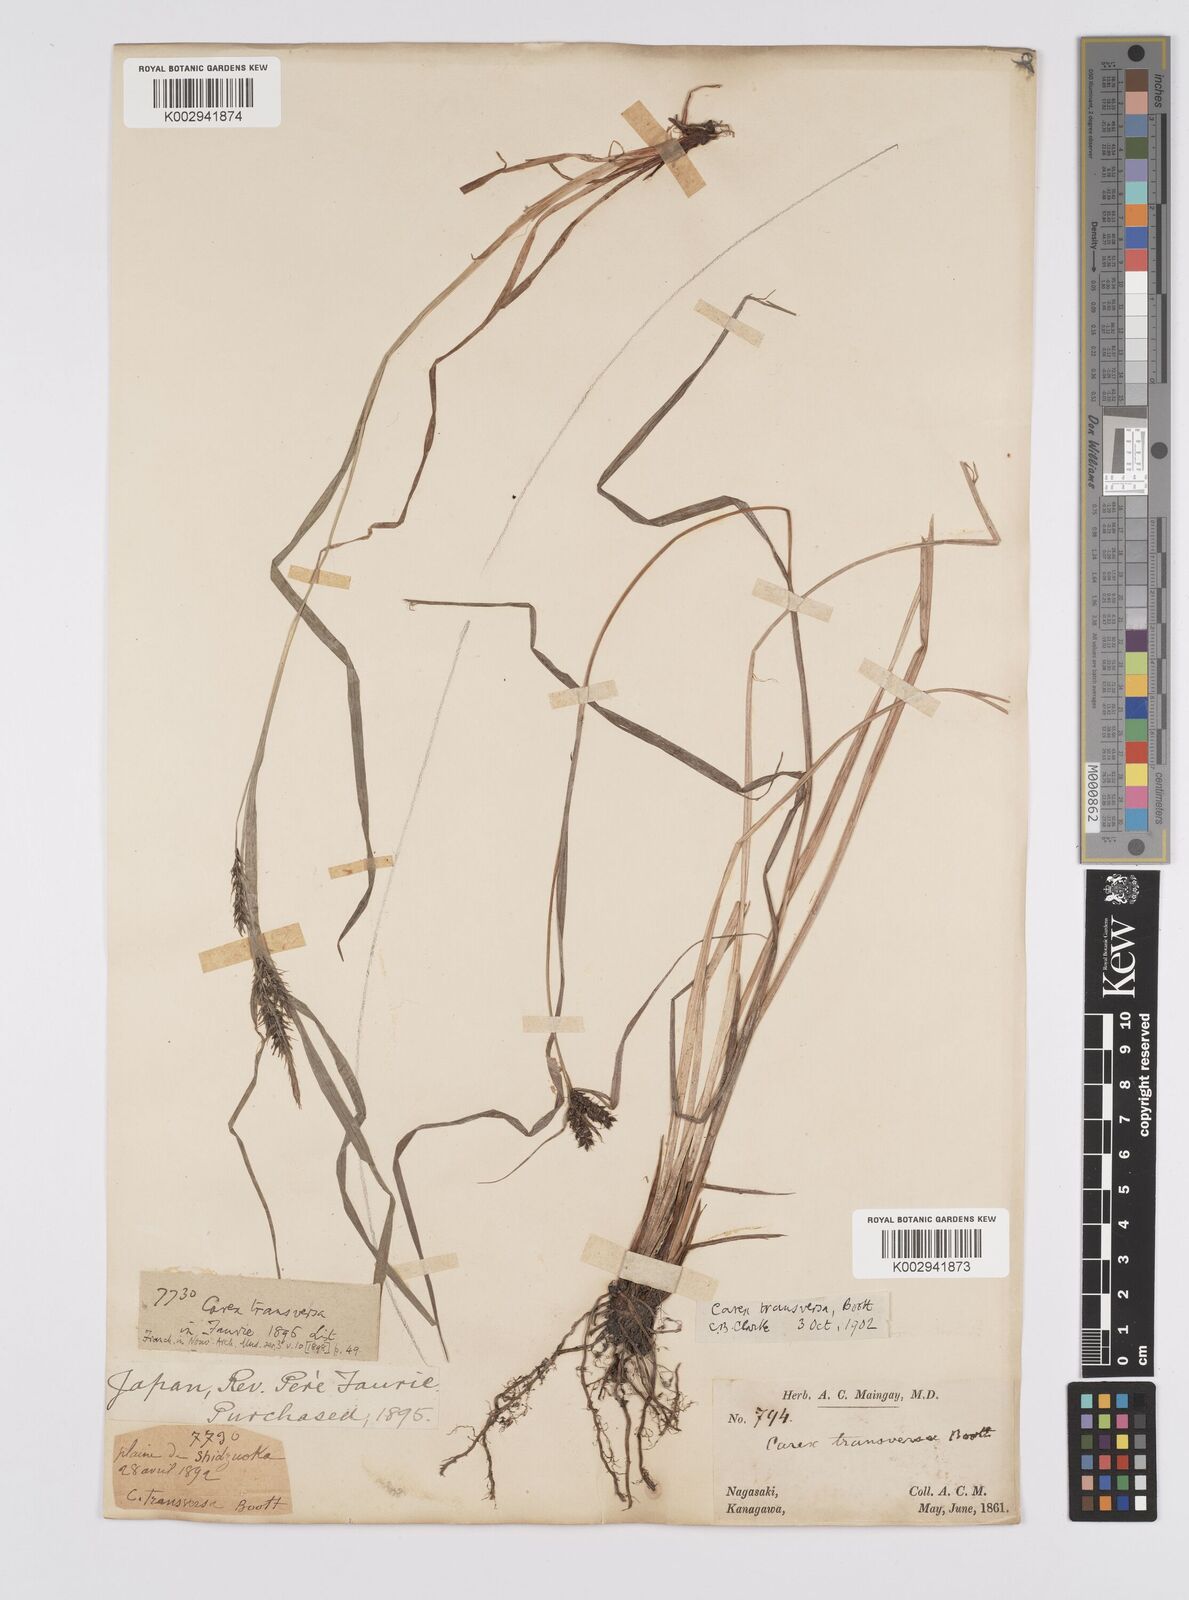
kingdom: Plantae
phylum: Tracheophyta
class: Liliopsida
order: Poales
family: Cyperaceae
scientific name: Cyperaceae
